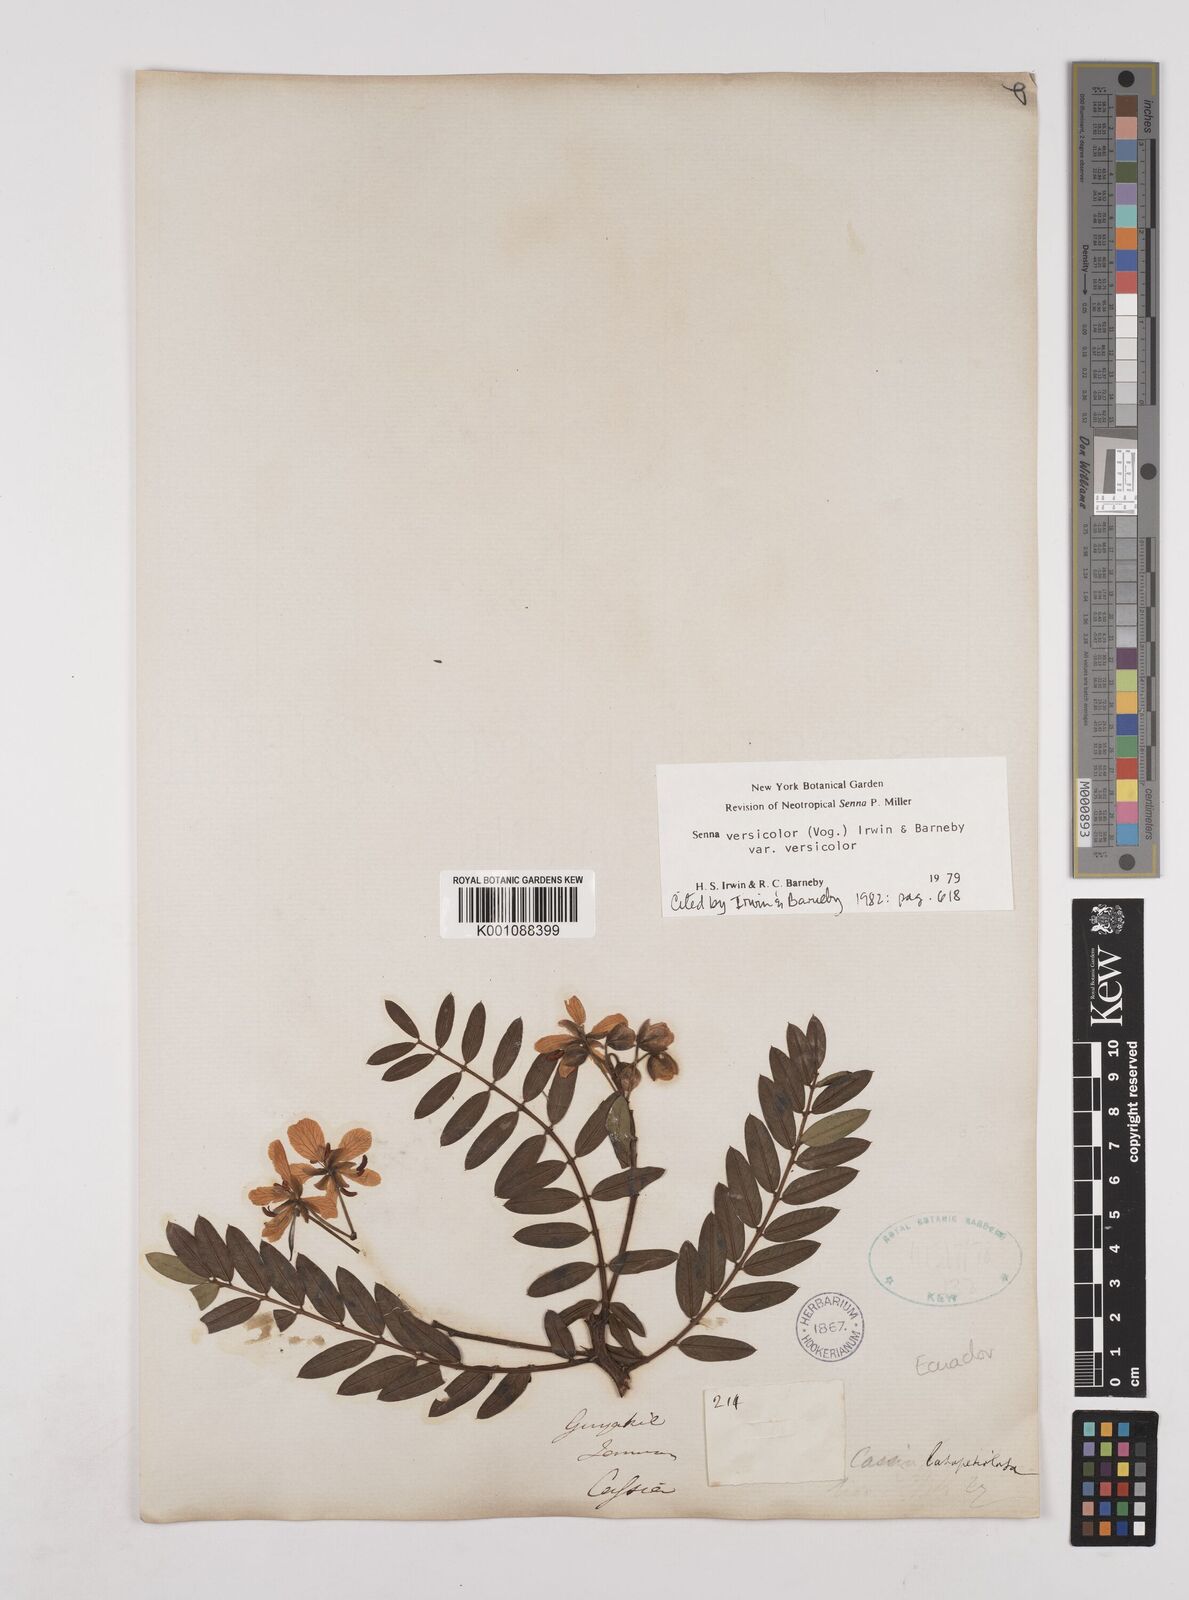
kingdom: Plantae
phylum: Tracheophyta
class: Magnoliopsida
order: Fabales
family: Fabaceae
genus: Senna
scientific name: Senna versicolor
